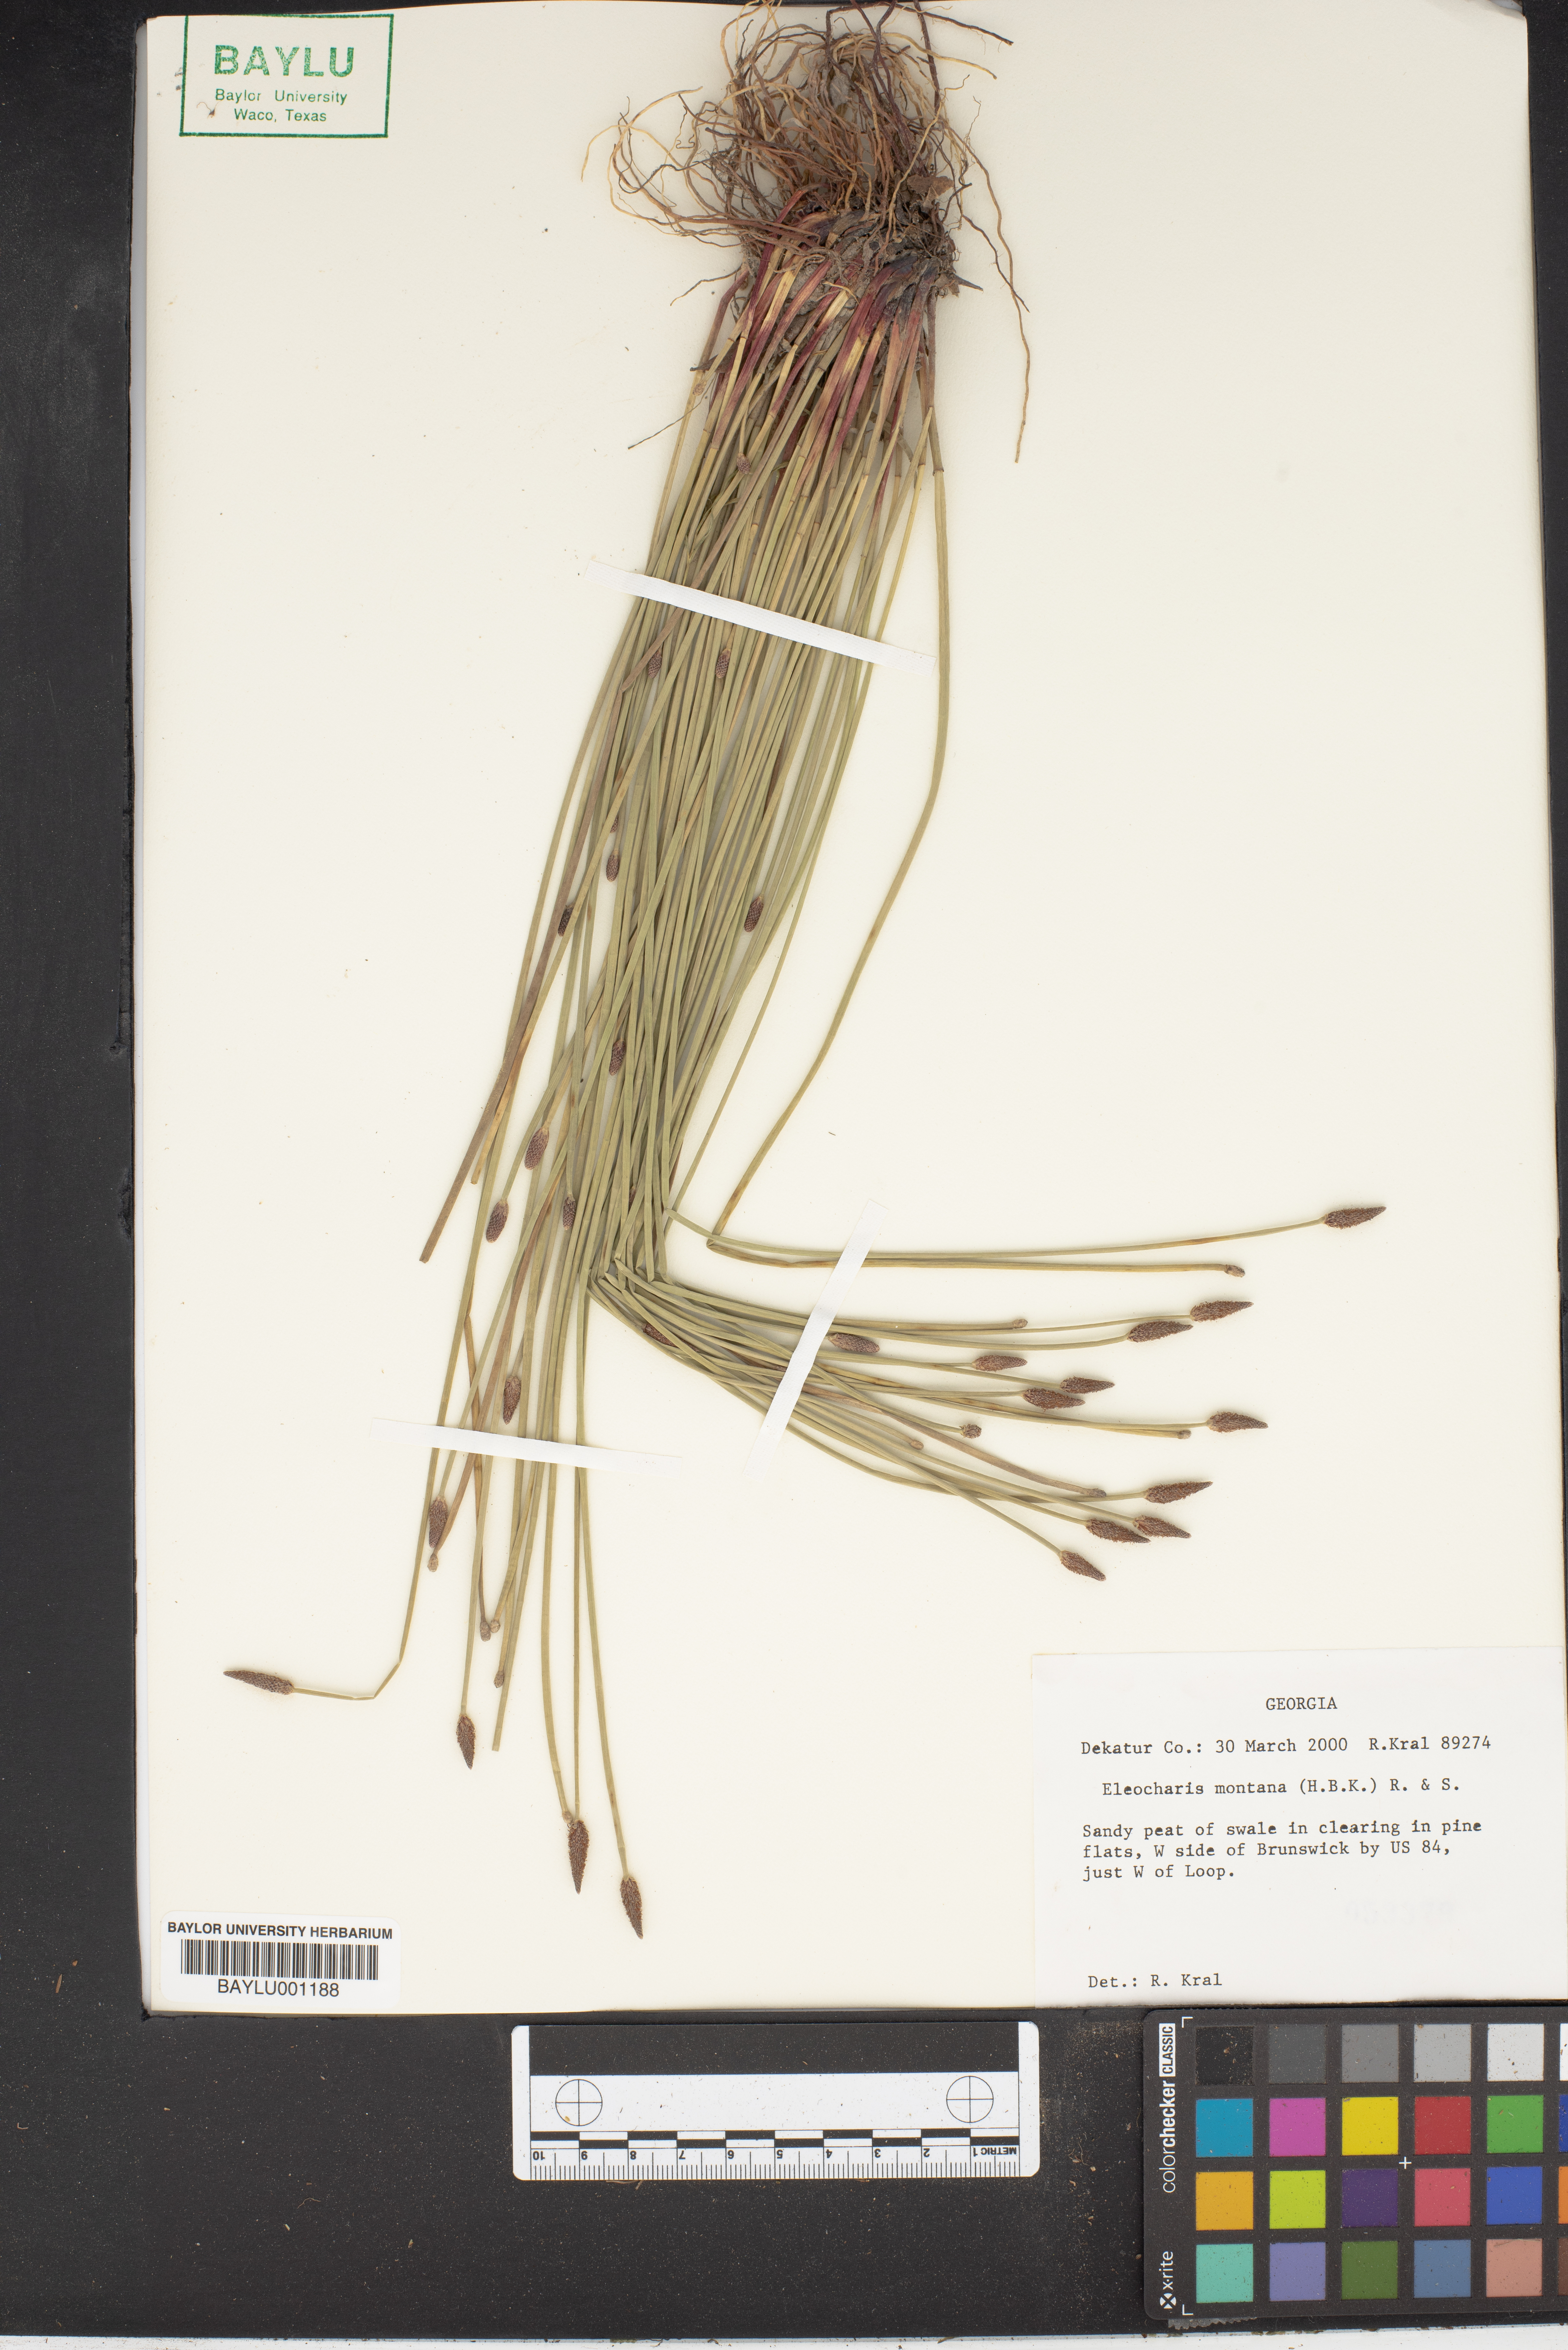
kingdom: Plantae
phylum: Tracheophyta
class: Liliopsida
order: Poales
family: Cyperaceae
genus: Eleocharis
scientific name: Eleocharis montana
